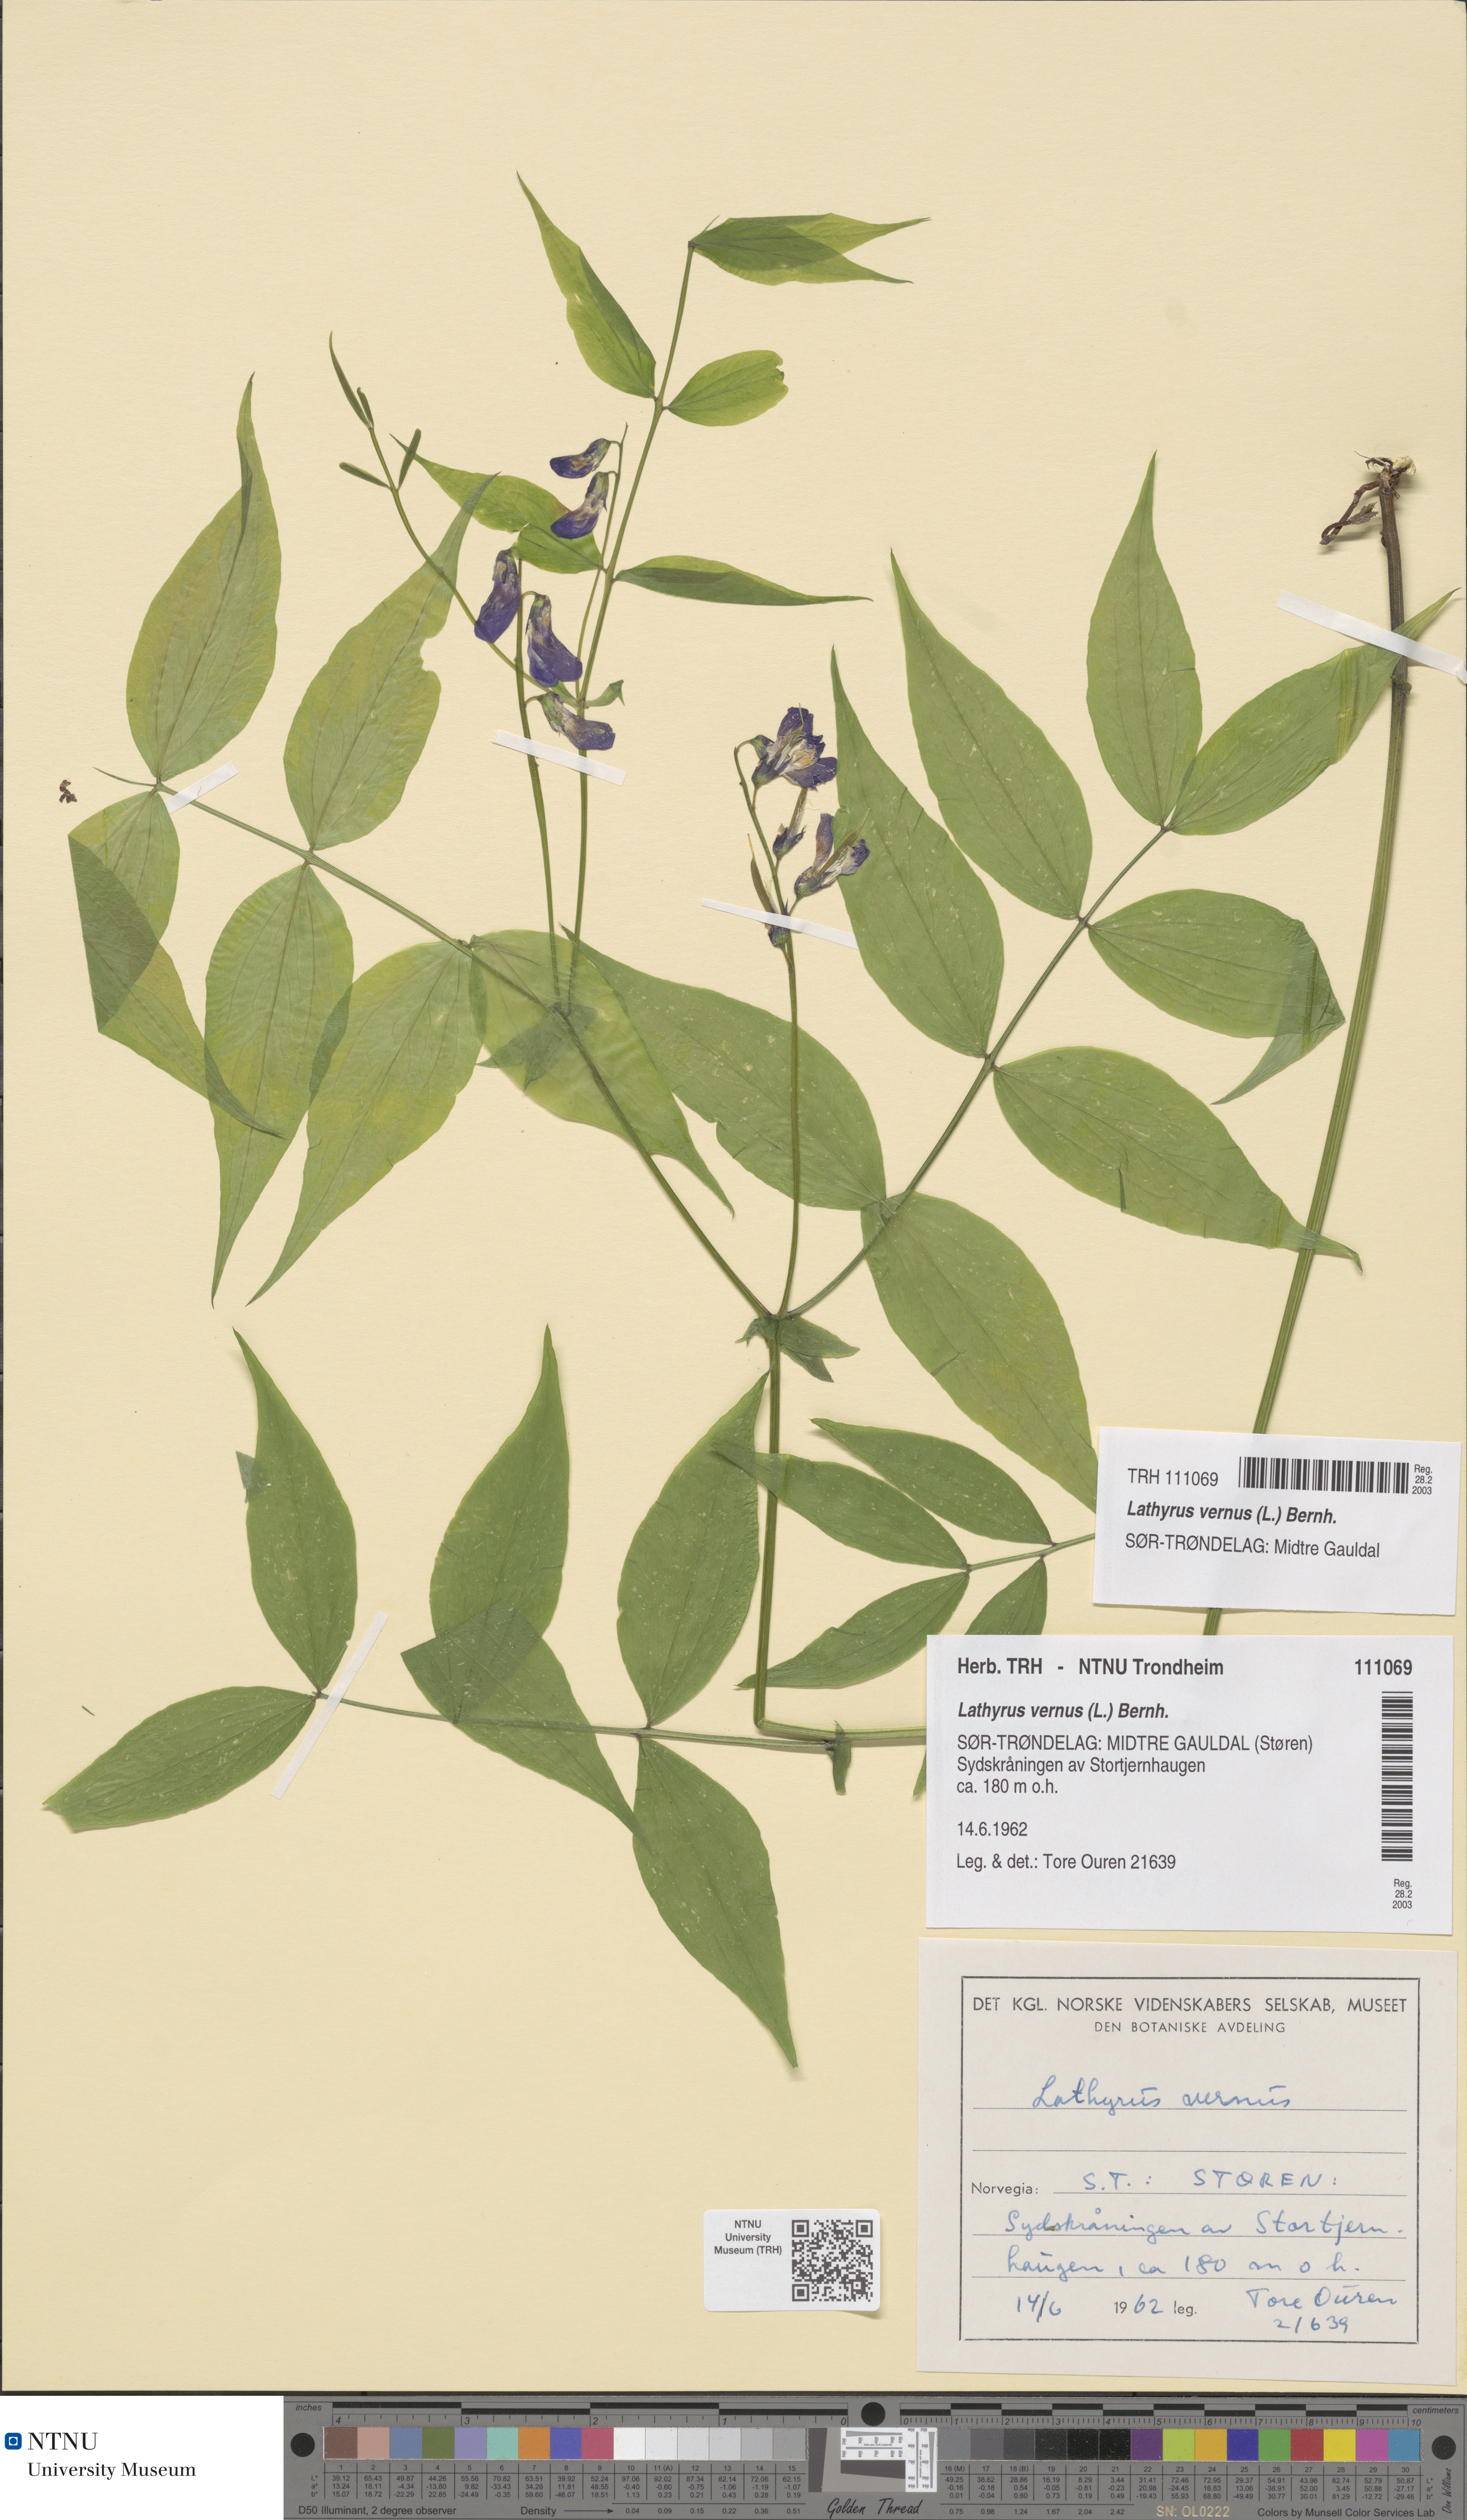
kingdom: Plantae
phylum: Tracheophyta
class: Magnoliopsida
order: Fabales
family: Fabaceae
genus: Lathyrus
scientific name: Lathyrus vernus
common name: Spring pea
